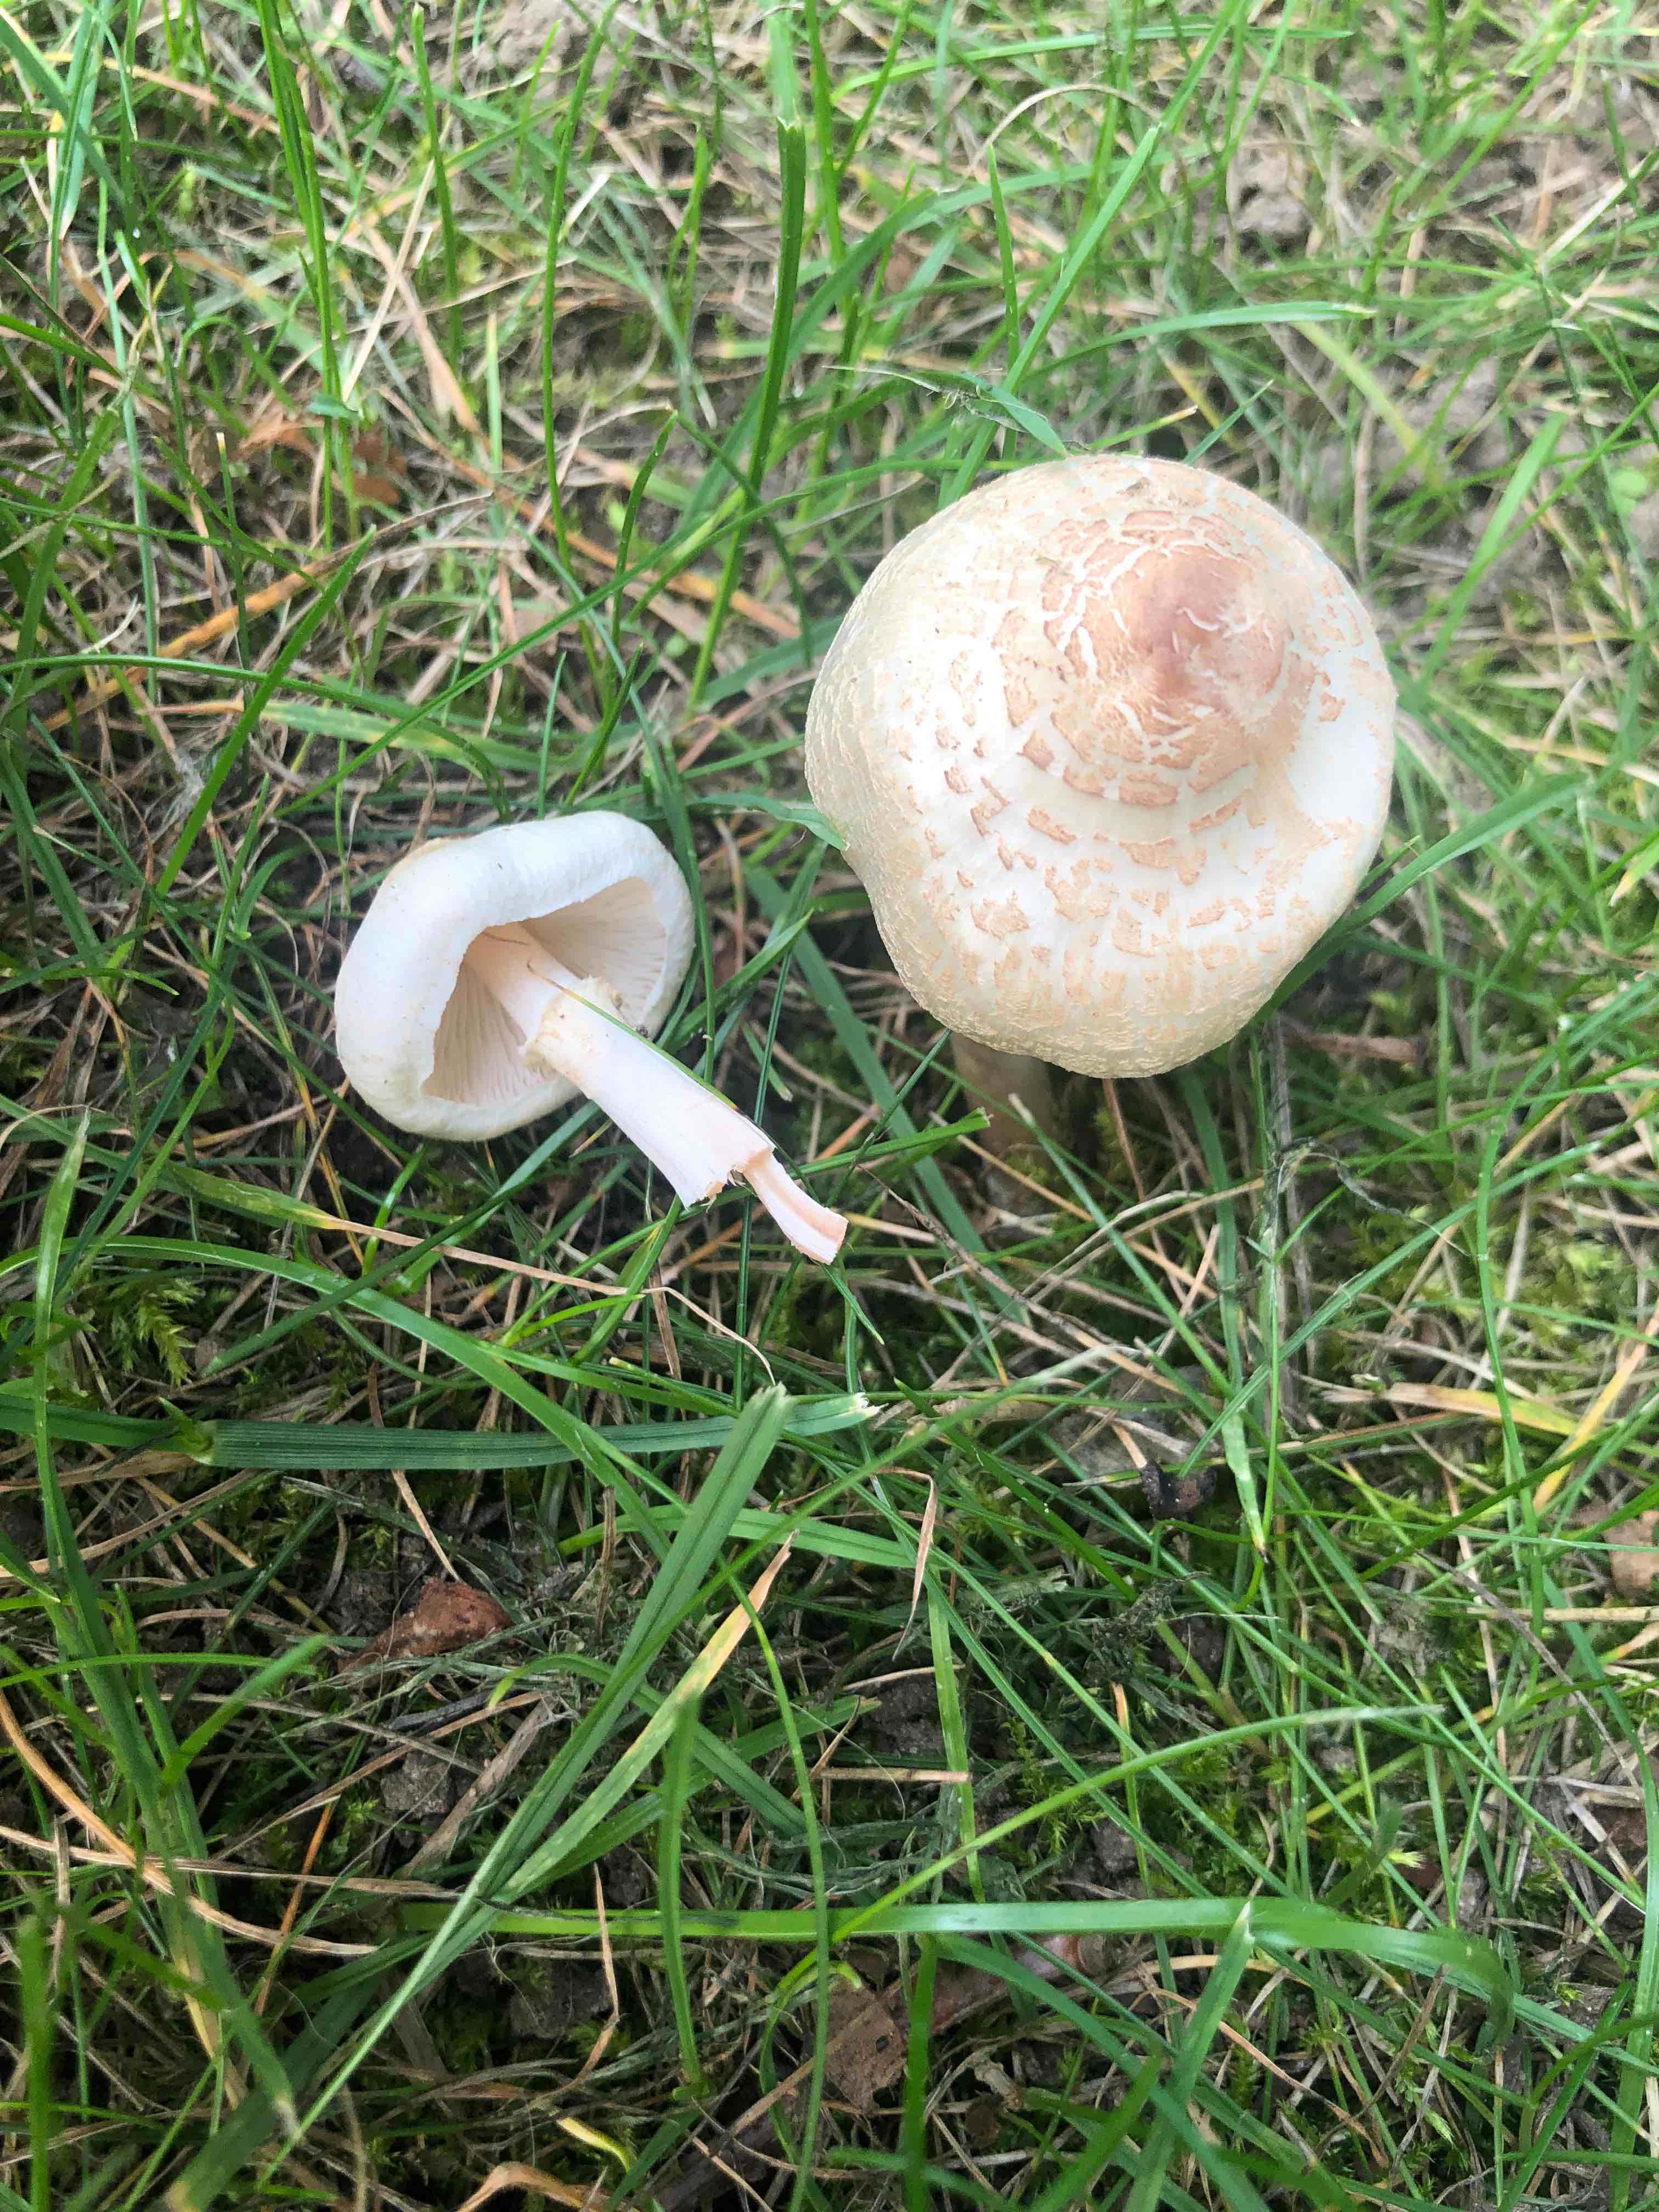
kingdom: Fungi
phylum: Basidiomycota
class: Agaricomycetes
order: Agaricales
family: Agaricaceae
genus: Lepiota
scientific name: Lepiota cristata
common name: stinkende parasolhat
